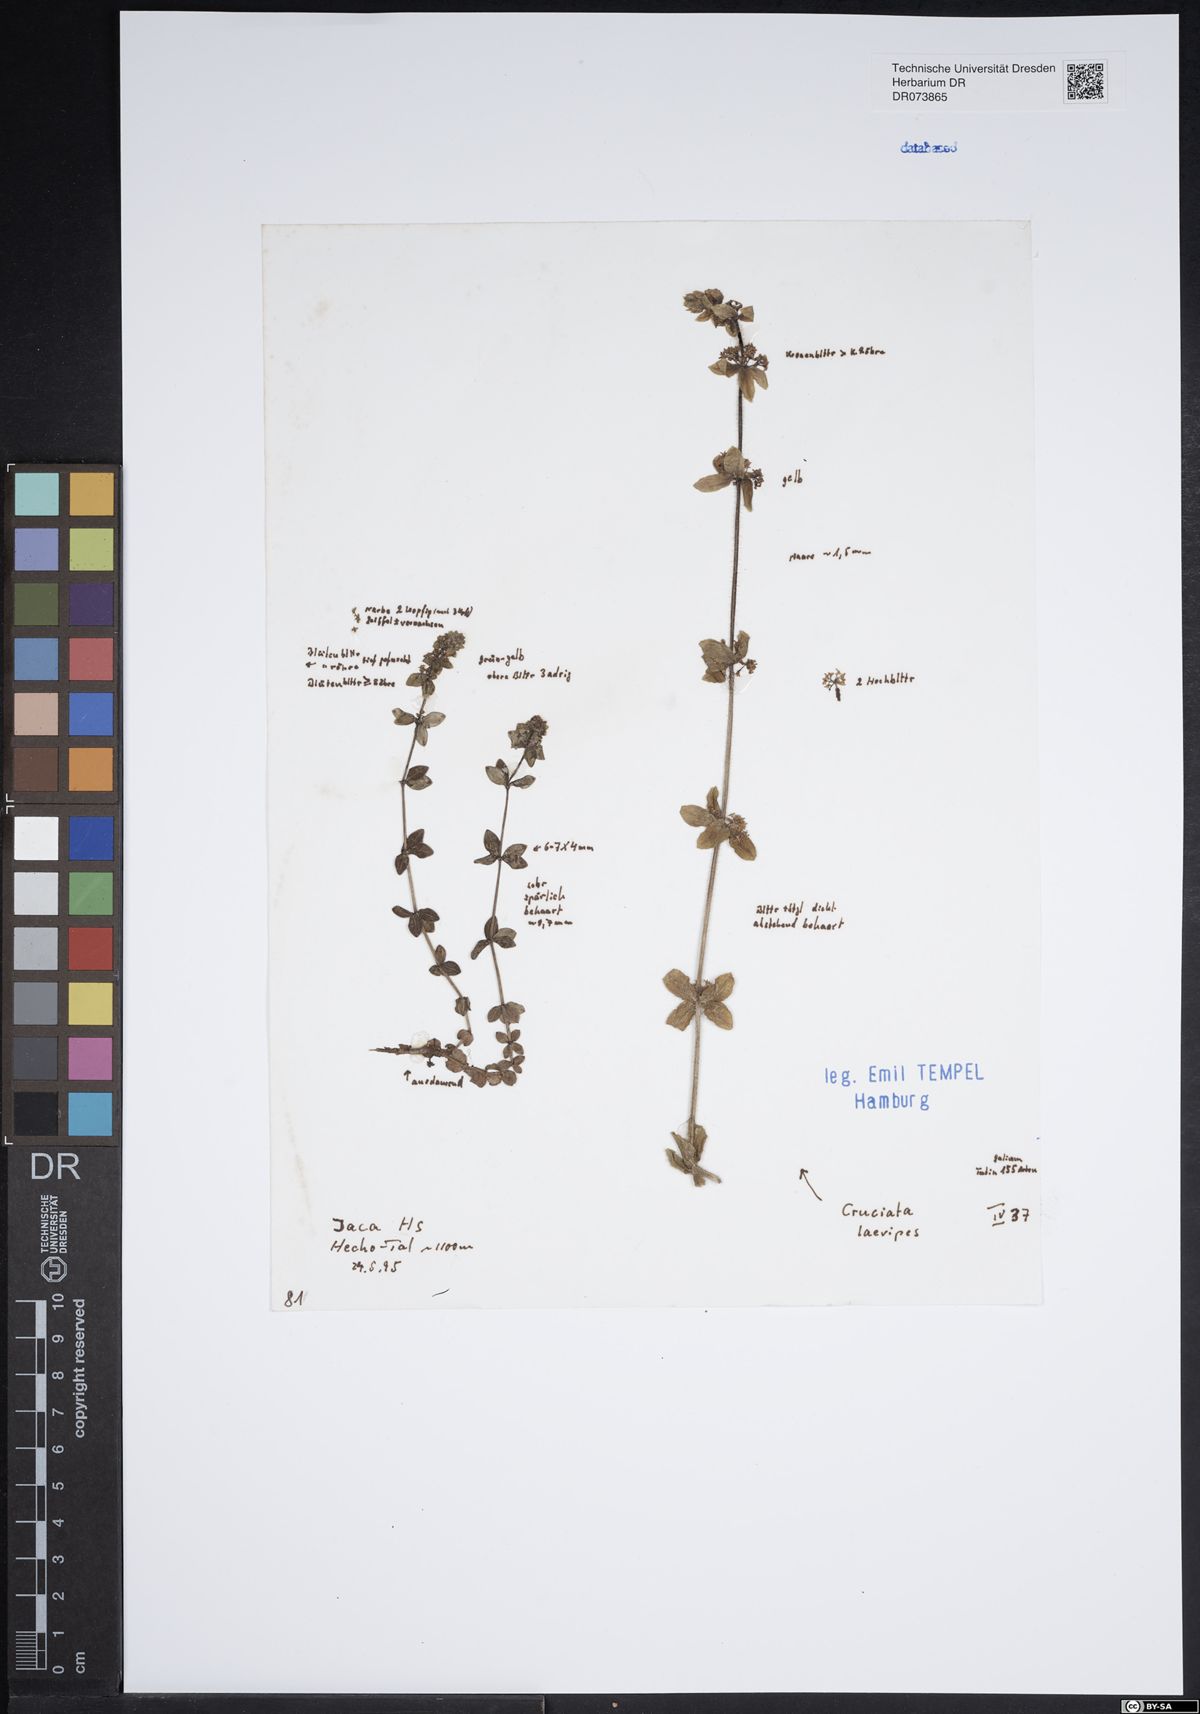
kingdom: Plantae
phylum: Tracheophyta
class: Magnoliopsida
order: Gentianales
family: Rubiaceae
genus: Cruciata
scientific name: Cruciata laevipes
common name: Crosswort
